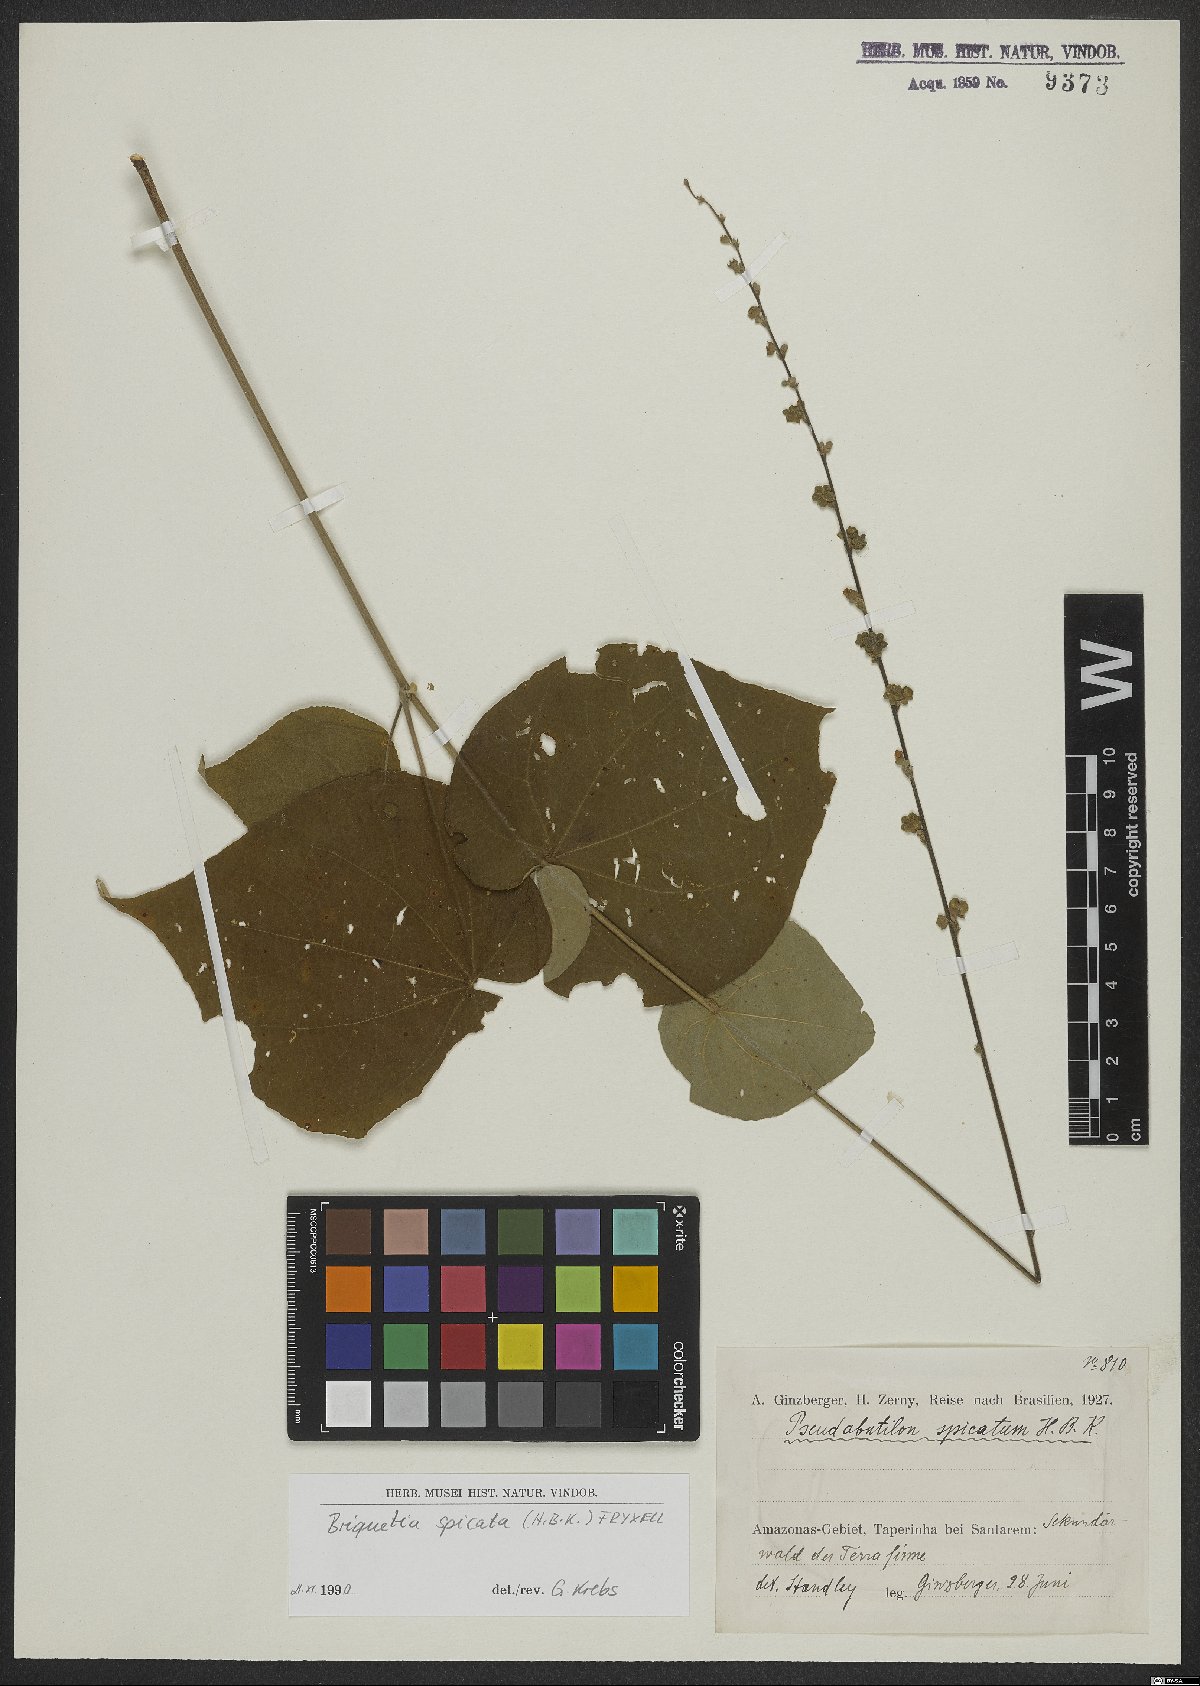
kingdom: Plantae
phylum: Tracheophyta
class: Magnoliopsida
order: Malvales
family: Malvaceae
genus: Allobriquetia
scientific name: Allobriquetia spicata
